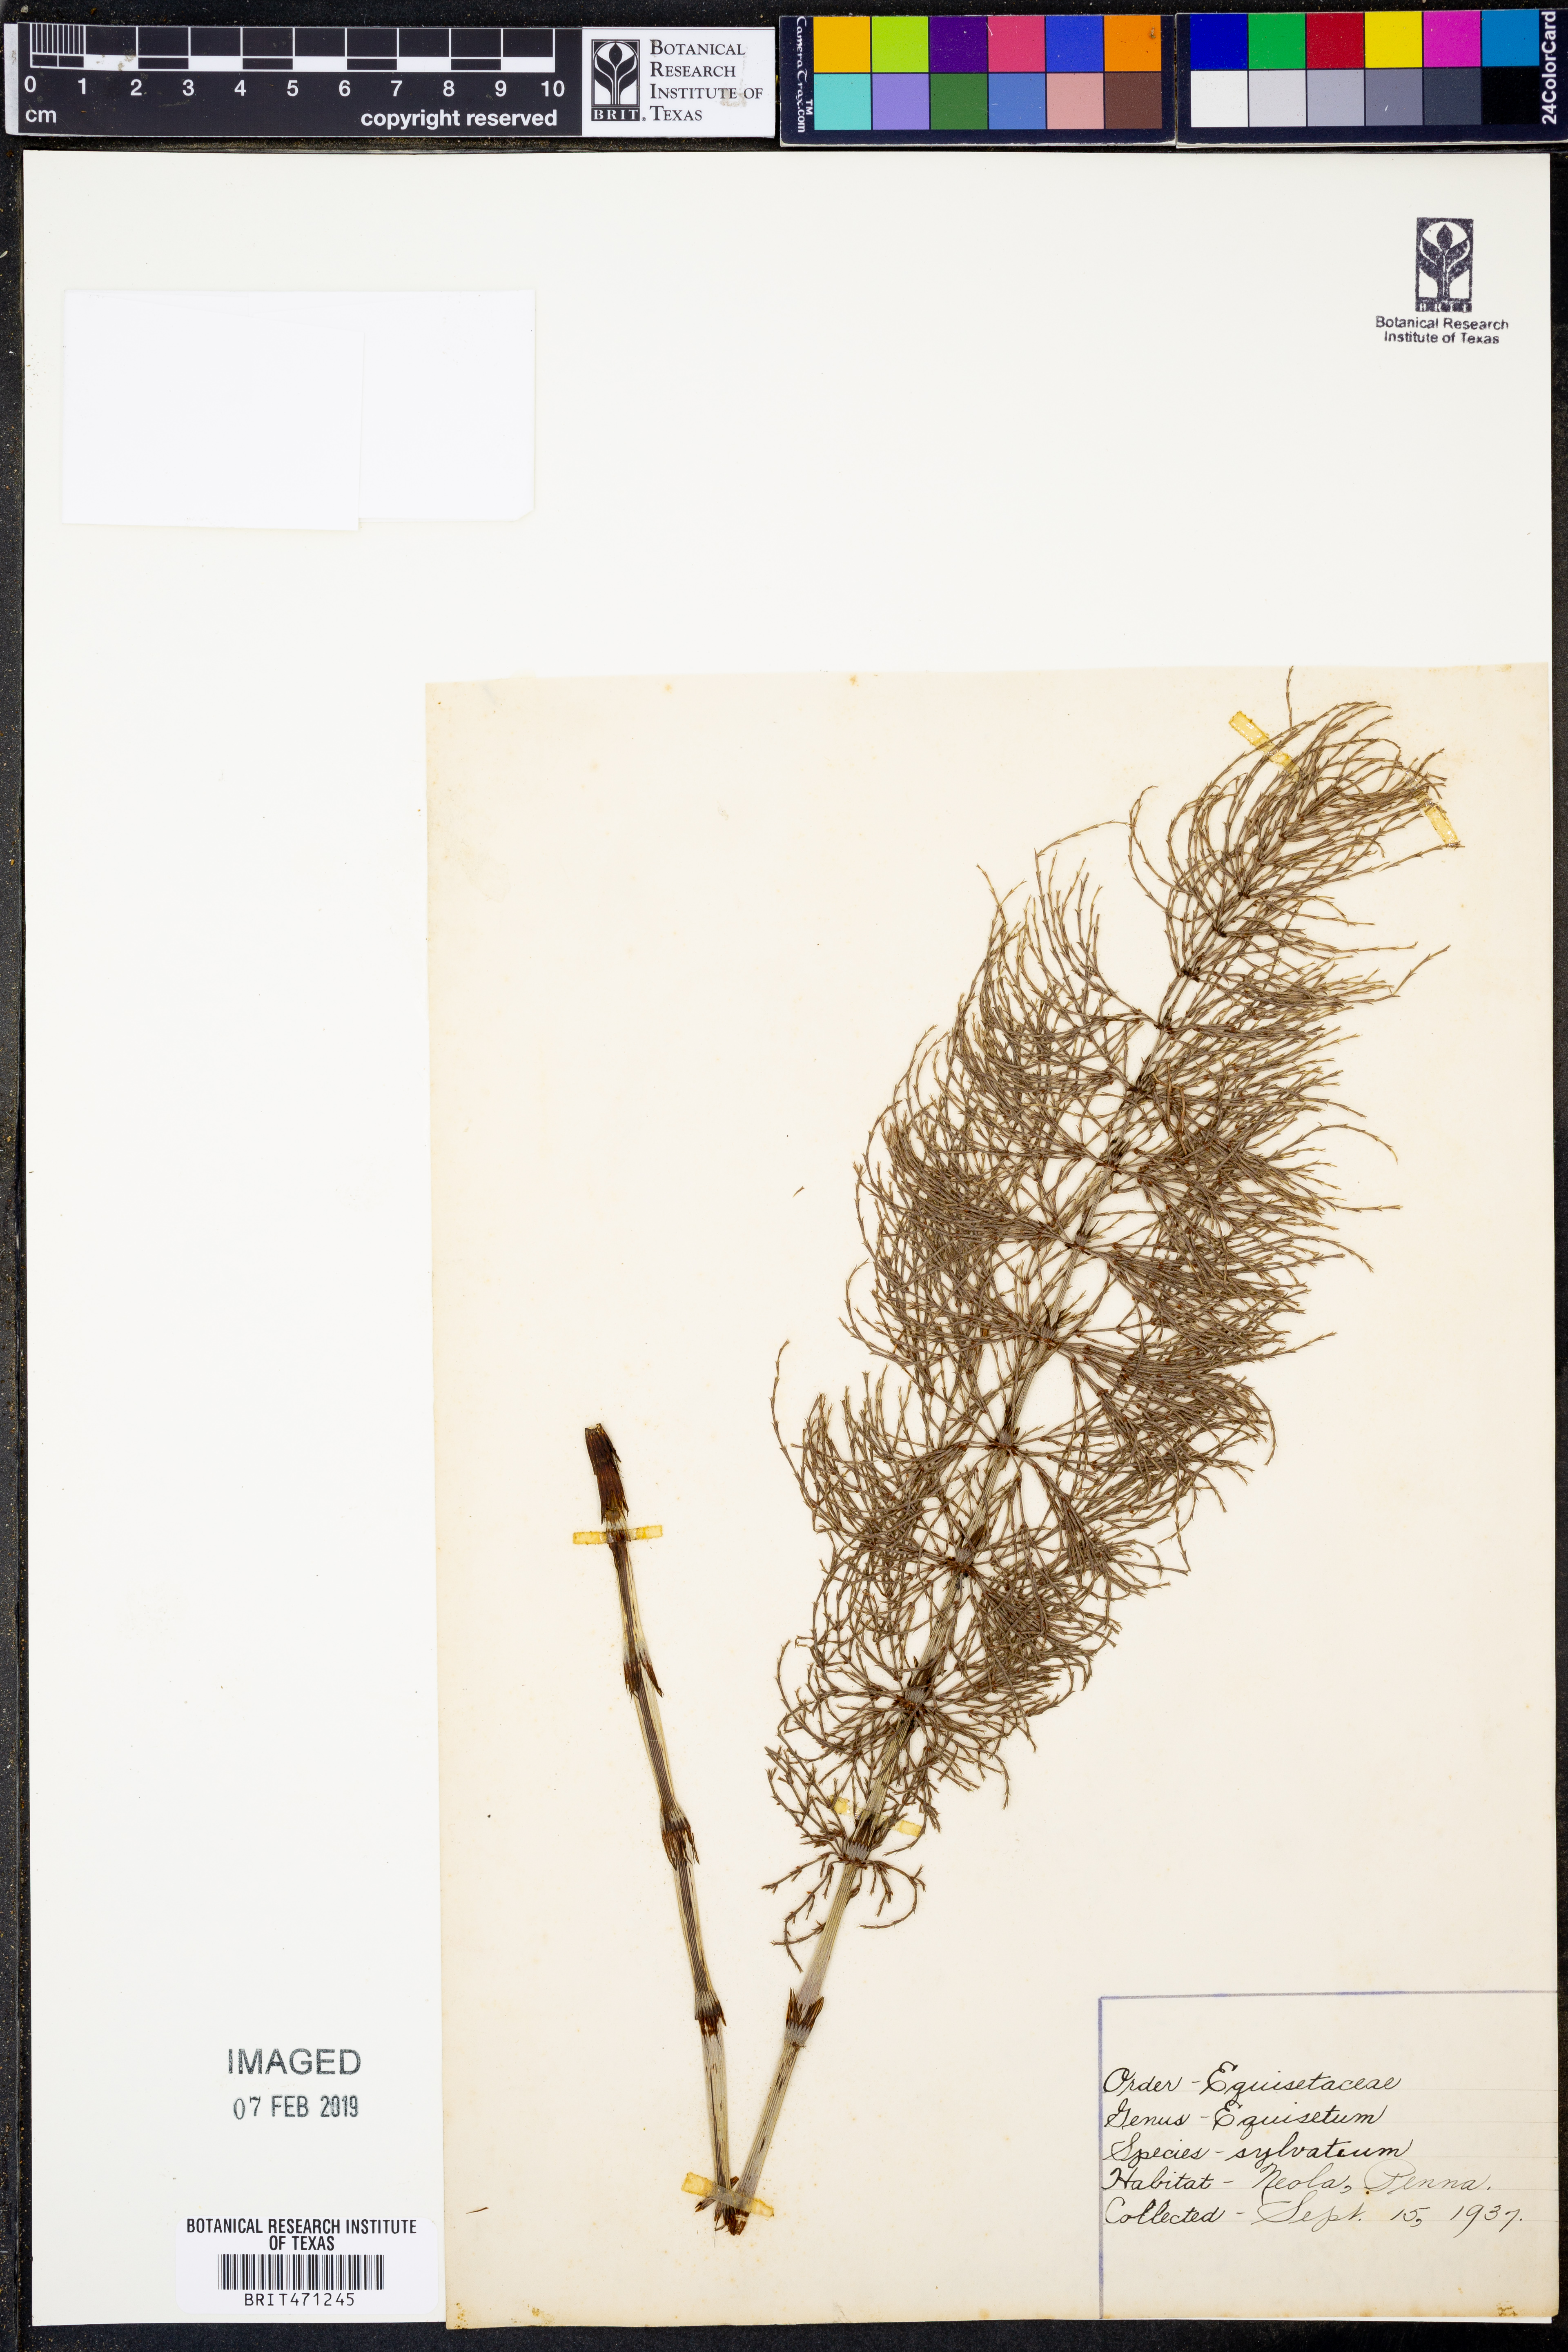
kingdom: Plantae
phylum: Tracheophyta
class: Polypodiopsida
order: Equisetales
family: Equisetaceae
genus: Equisetum
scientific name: Equisetum sylvaticum
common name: Wood horsetail
